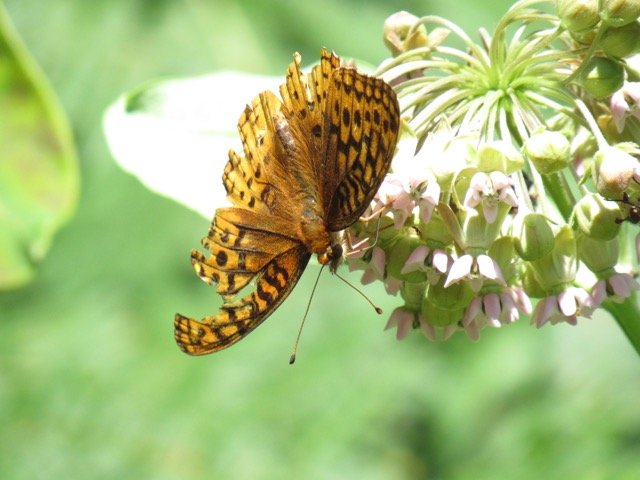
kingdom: Animalia
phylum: Arthropoda
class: Insecta
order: Lepidoptera
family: Nymphalidae
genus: Speyeria
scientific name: Speyeria cybele
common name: Great Spangled Fritillary
